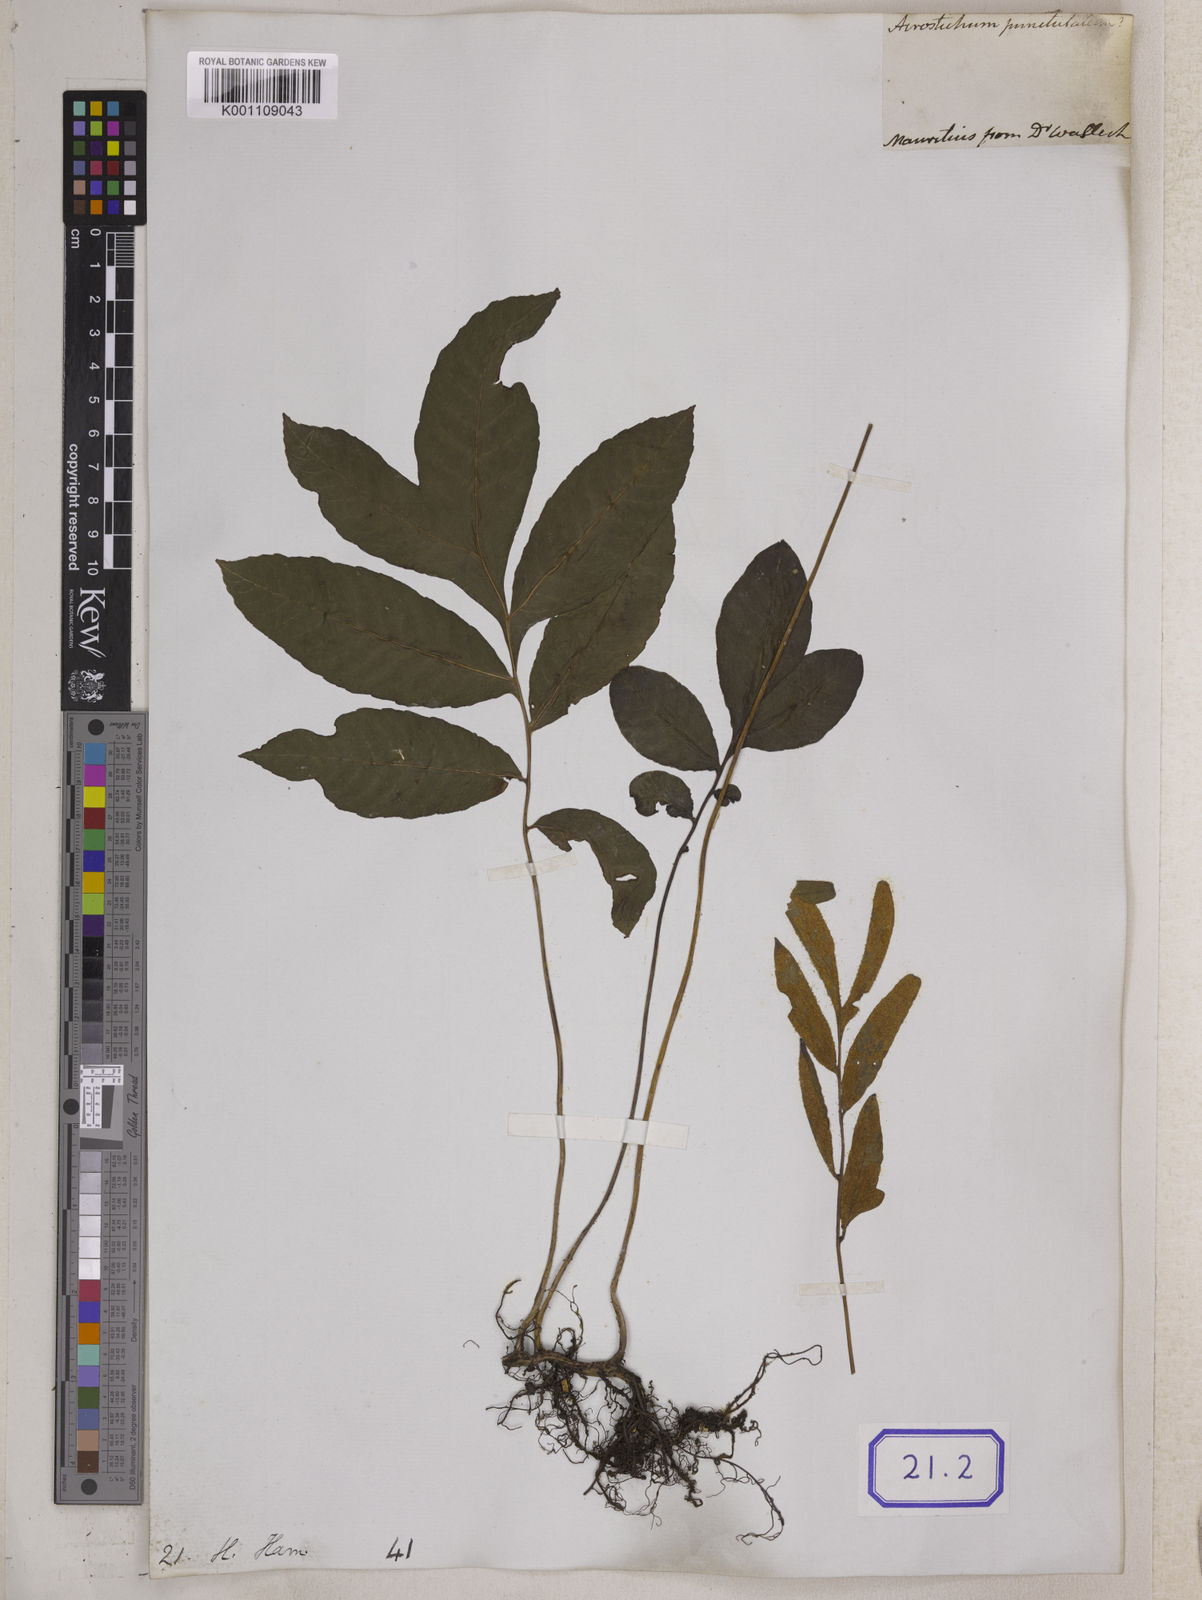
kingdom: Plantae
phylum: Tracheophyta
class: Polypodiopsida
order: Polypodiales
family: Pteridaceae
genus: Acrostichum
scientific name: Acrostichum
